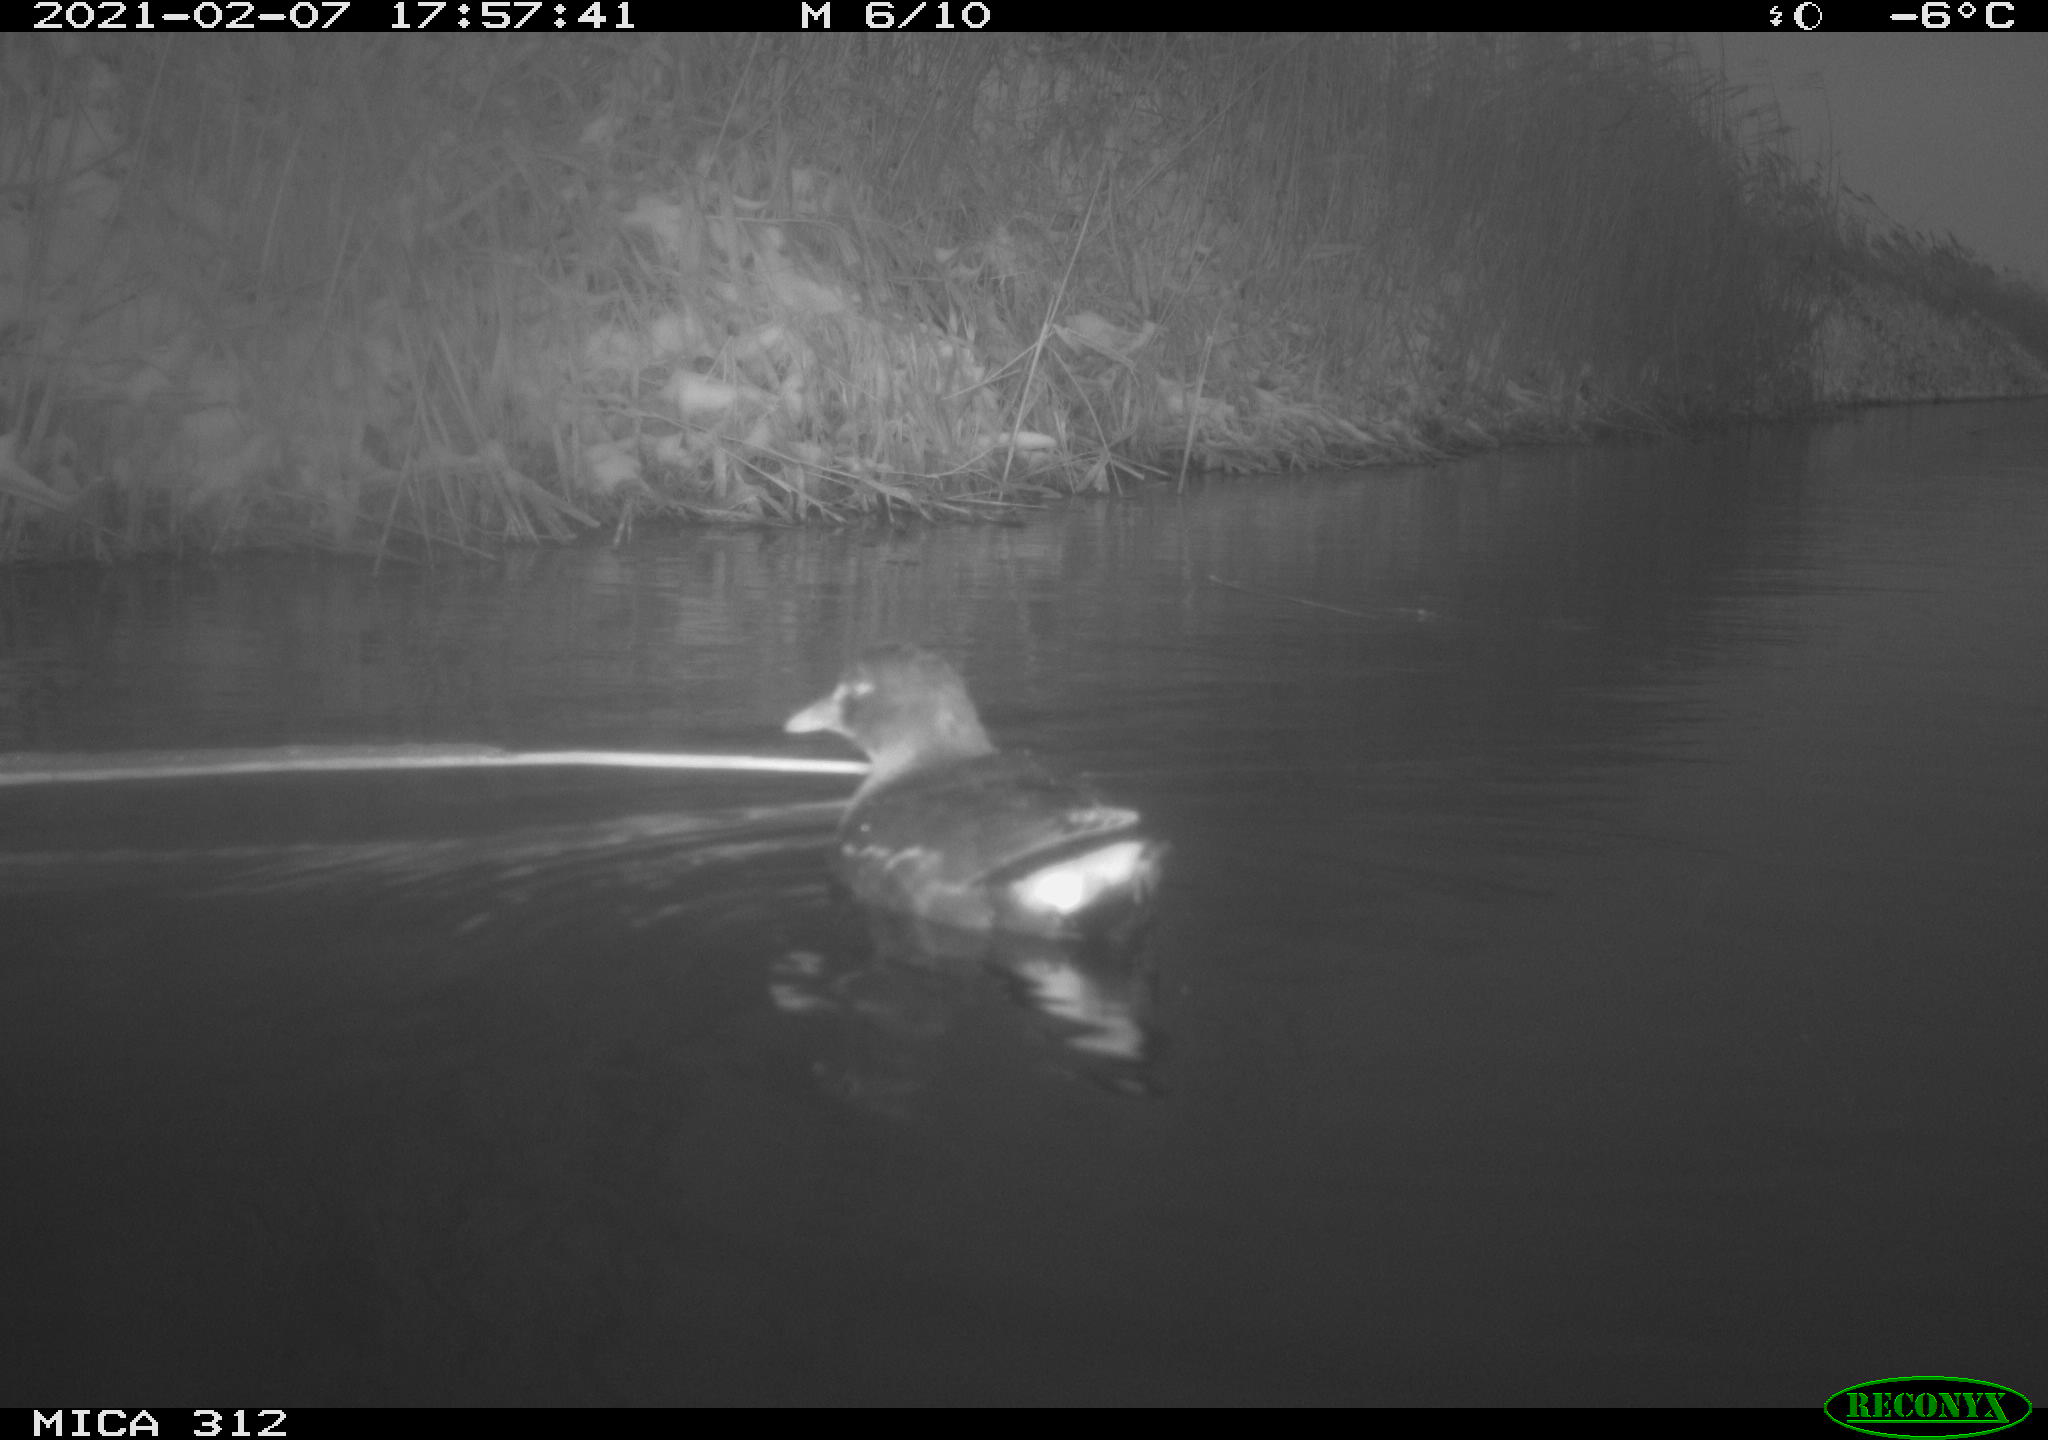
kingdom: Animalia
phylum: Chordata
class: Aves
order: Gruiformes
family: Rallidae
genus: Gallinula
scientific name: Gallinula chloropus
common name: Common moorhen
